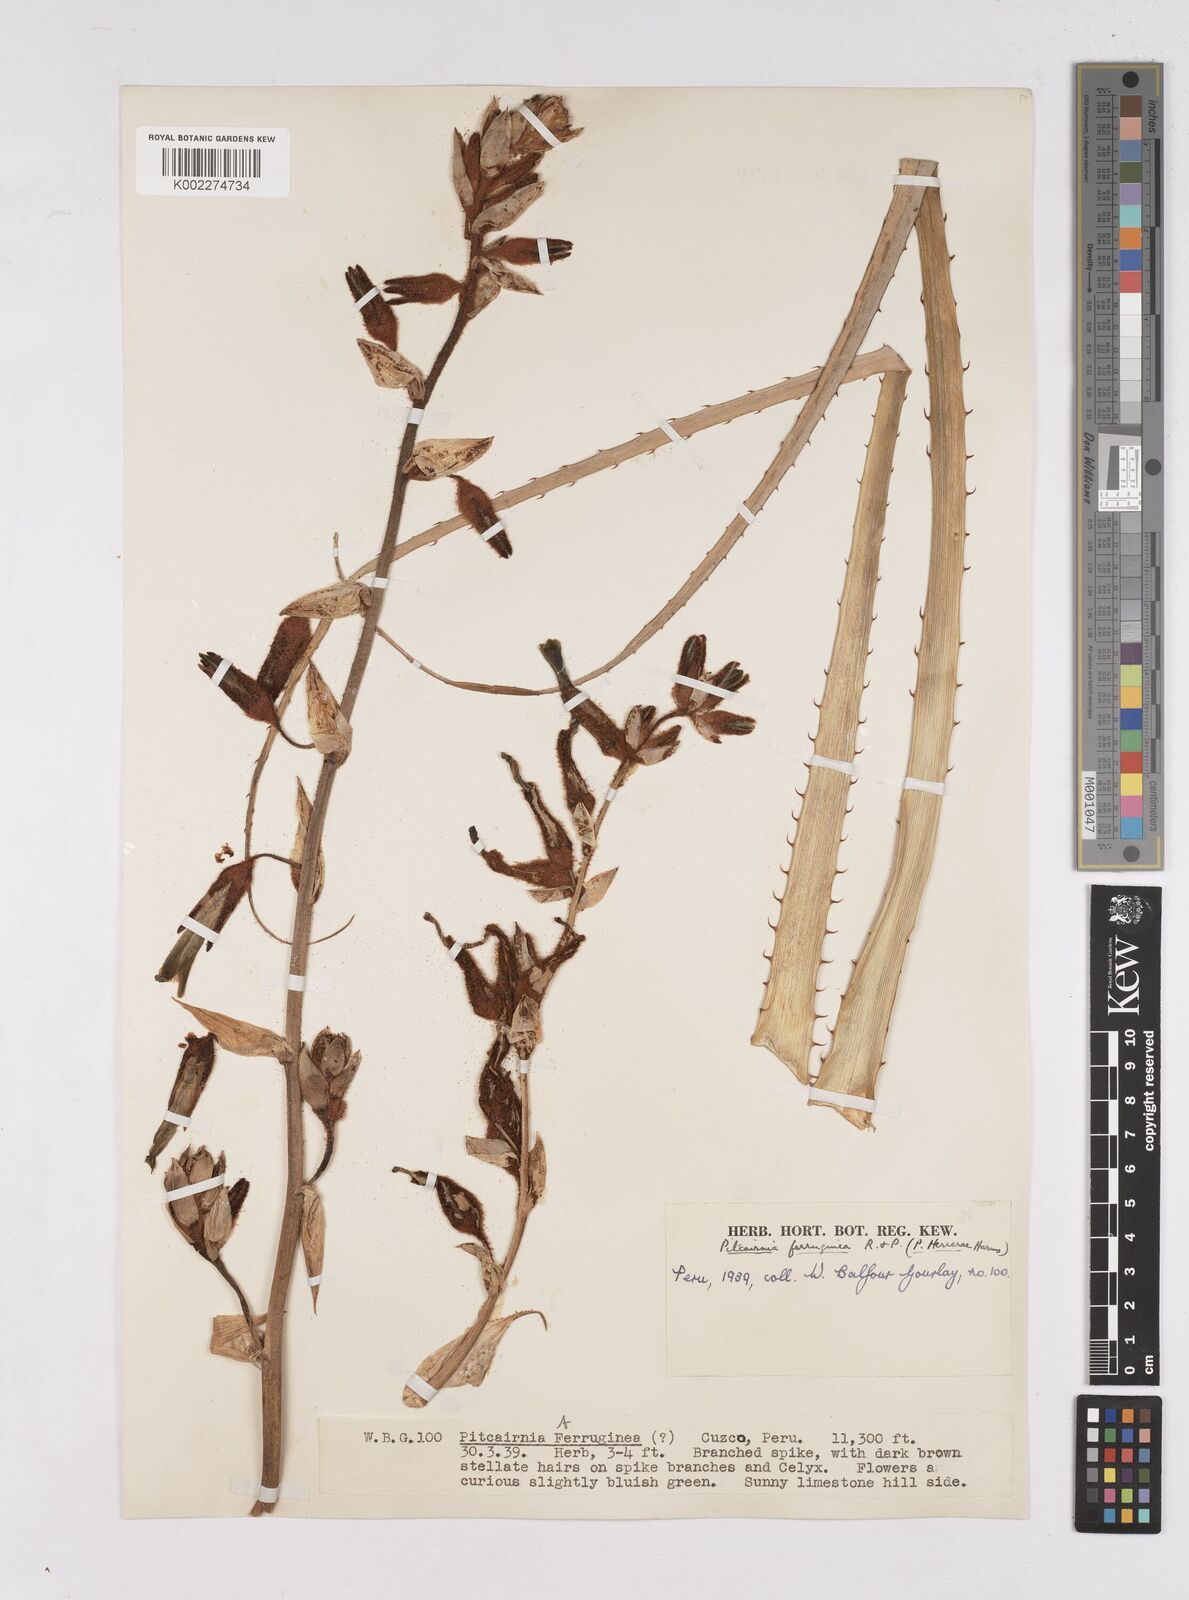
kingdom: Plantae
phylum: Tracheophyta
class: Liliopsida
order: Poales
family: Bromeliaceae
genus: Puya
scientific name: Puya ferruginea
